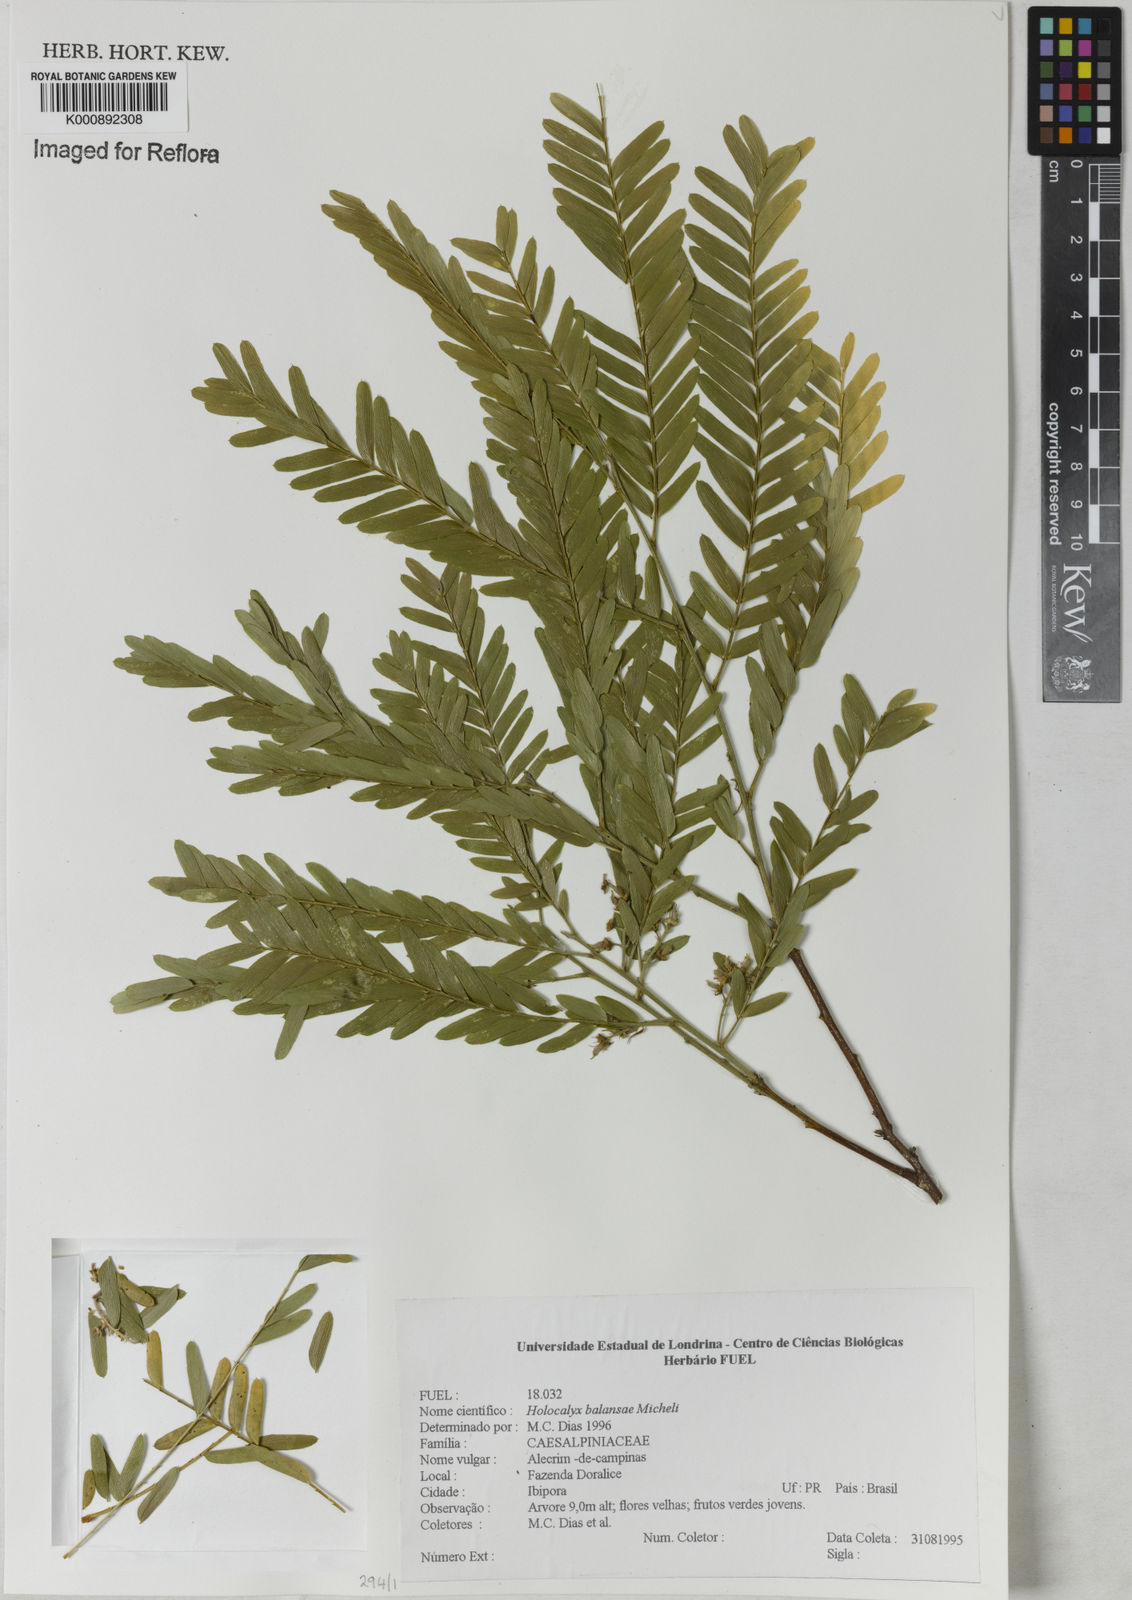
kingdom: Plantae
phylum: Tracheophyta
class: Magnoliopsida
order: Fabales
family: Fabaceae
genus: Holocalyx
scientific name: Holocalyx
